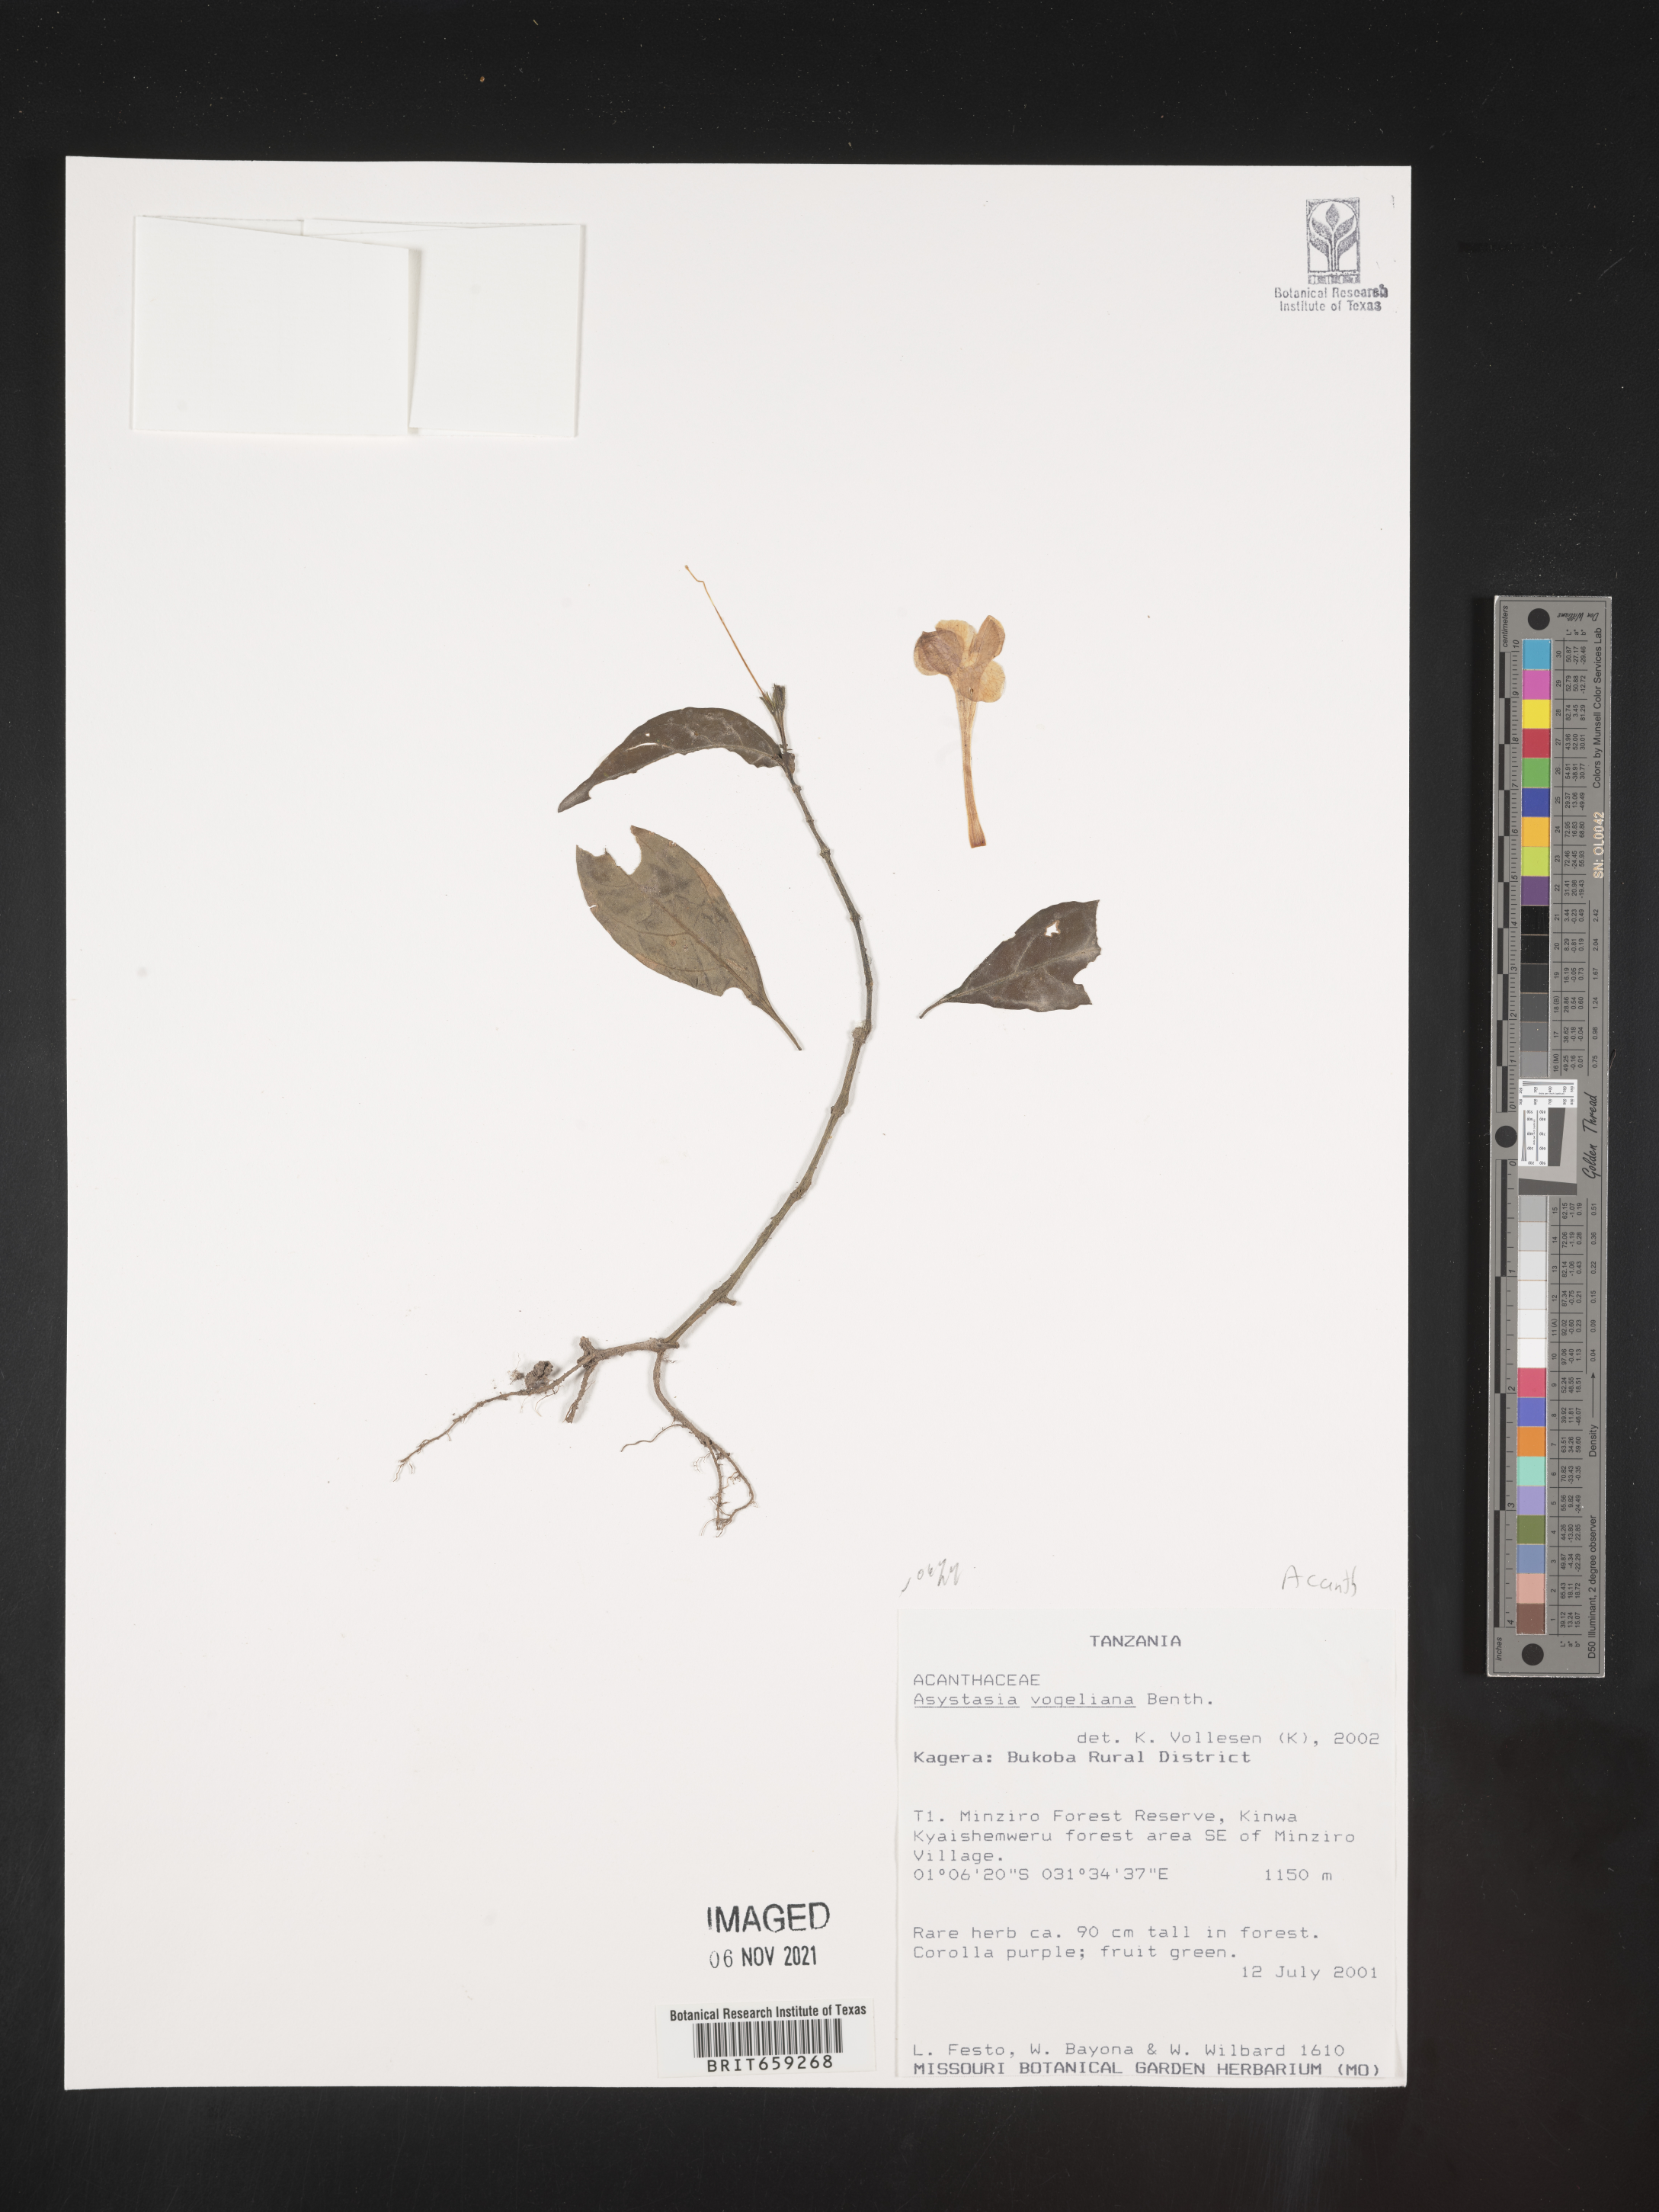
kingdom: Plantae
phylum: Tracheophyta
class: Magnoliopsida
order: Lamiales
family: Acanthaceae
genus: Asystasia
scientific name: Asystasia vogeliana
